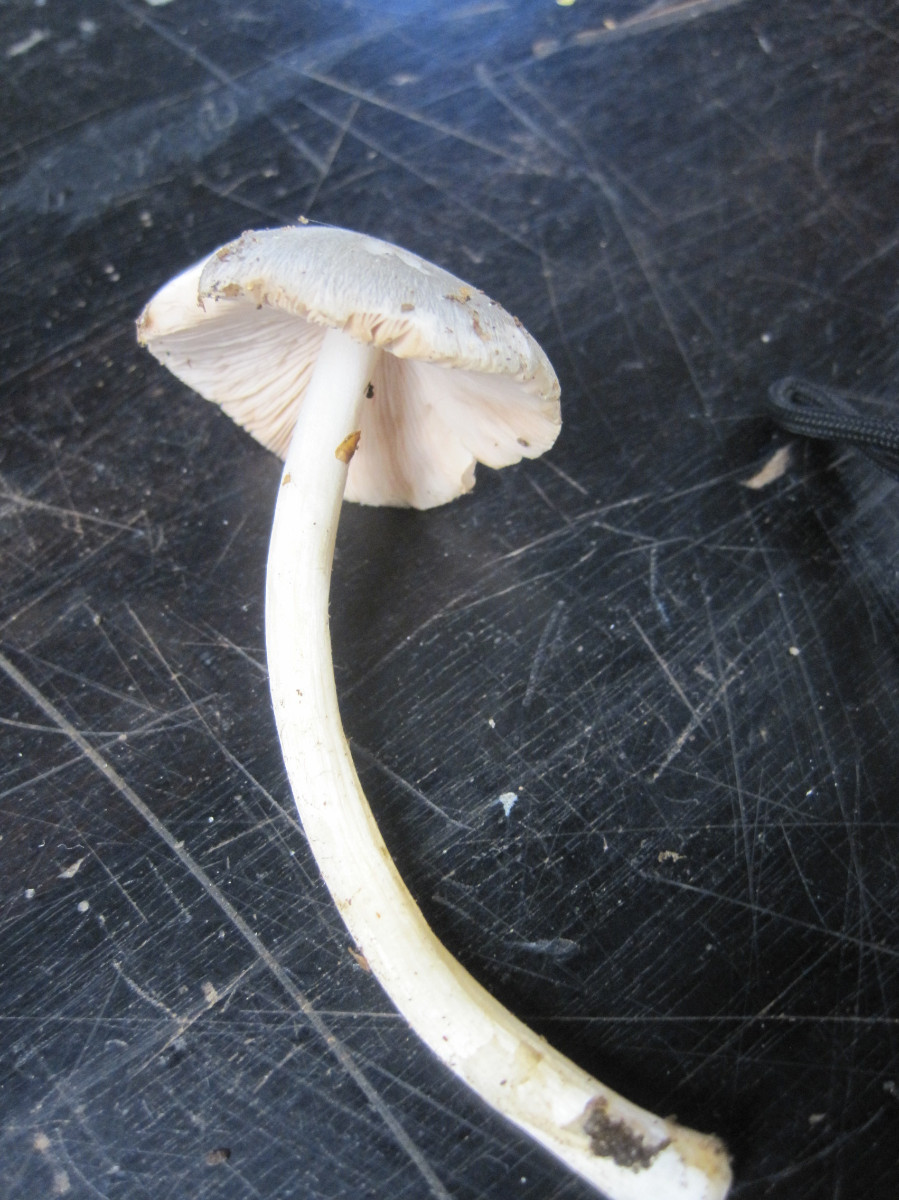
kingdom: Fungi
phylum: Basidiomycota
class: Agaricomycetes
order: Agaricales
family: Pluteaceae
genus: Pluteus
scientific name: Pluteus salicinus
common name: stiv skærmhat
